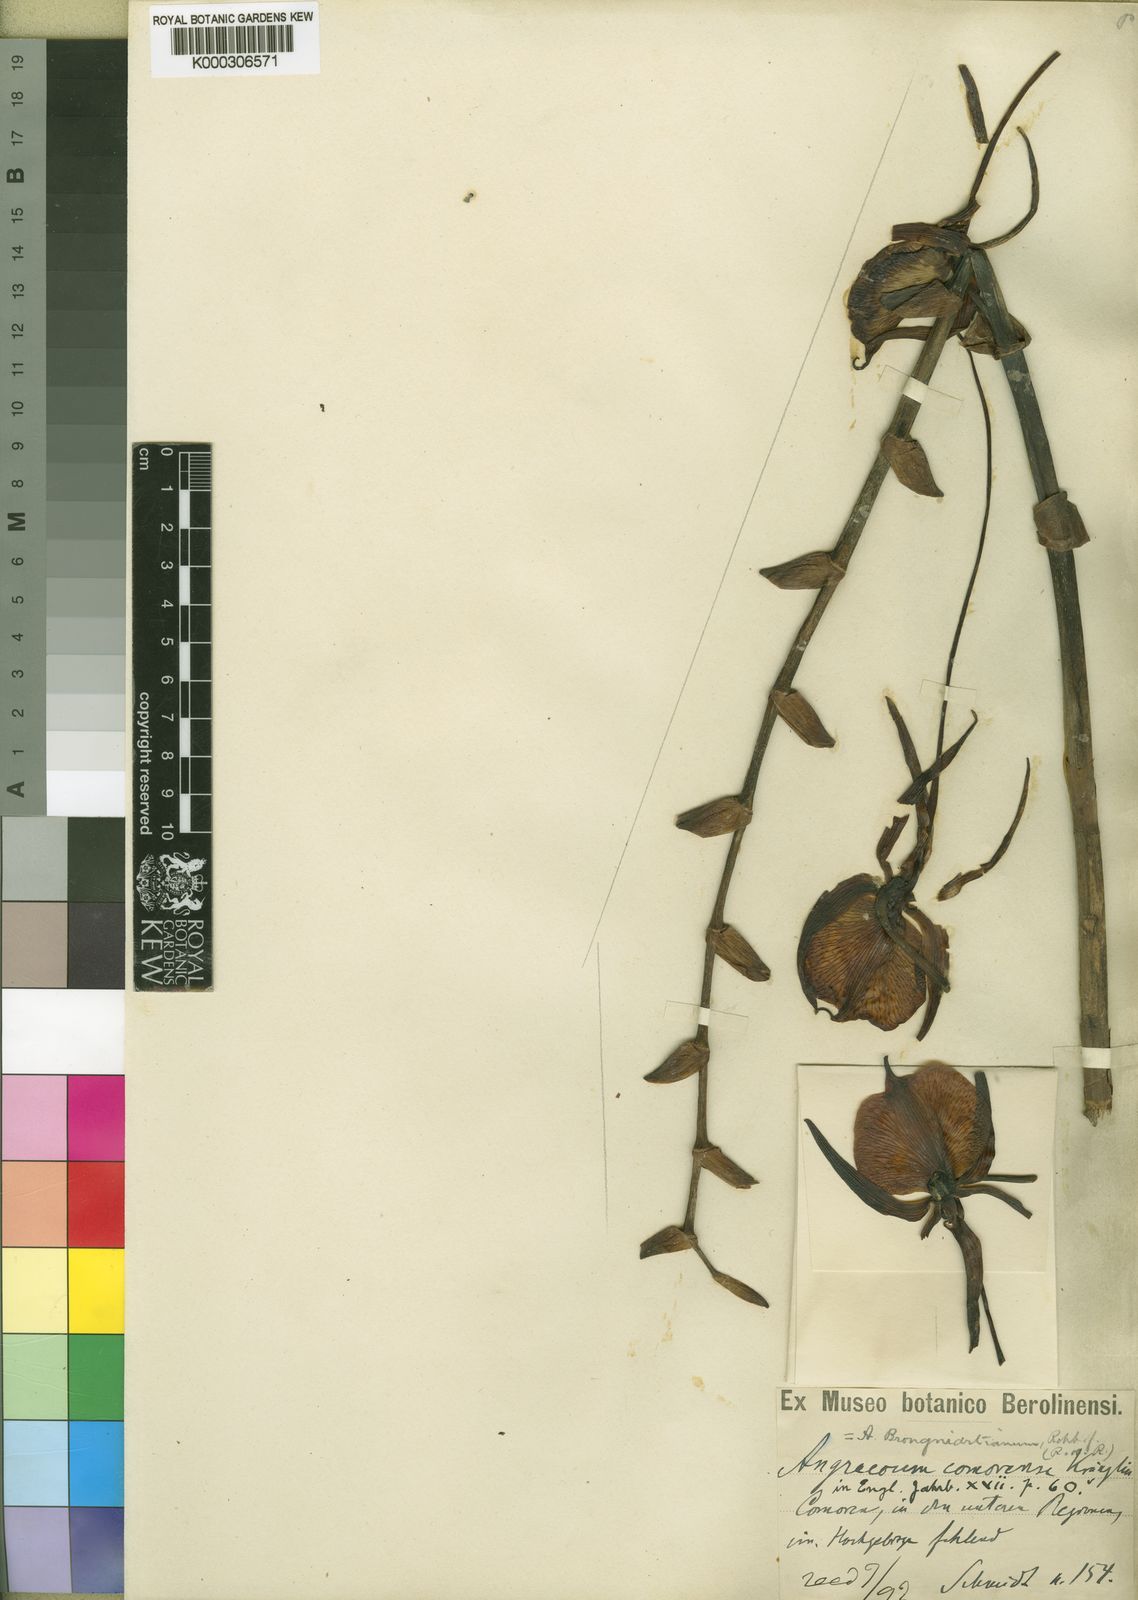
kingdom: Plantae
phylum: Tracheophyta
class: Liliopsida
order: Asparagales
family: Orchidaceae
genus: Angraecum
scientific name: Angraecum eburneum
